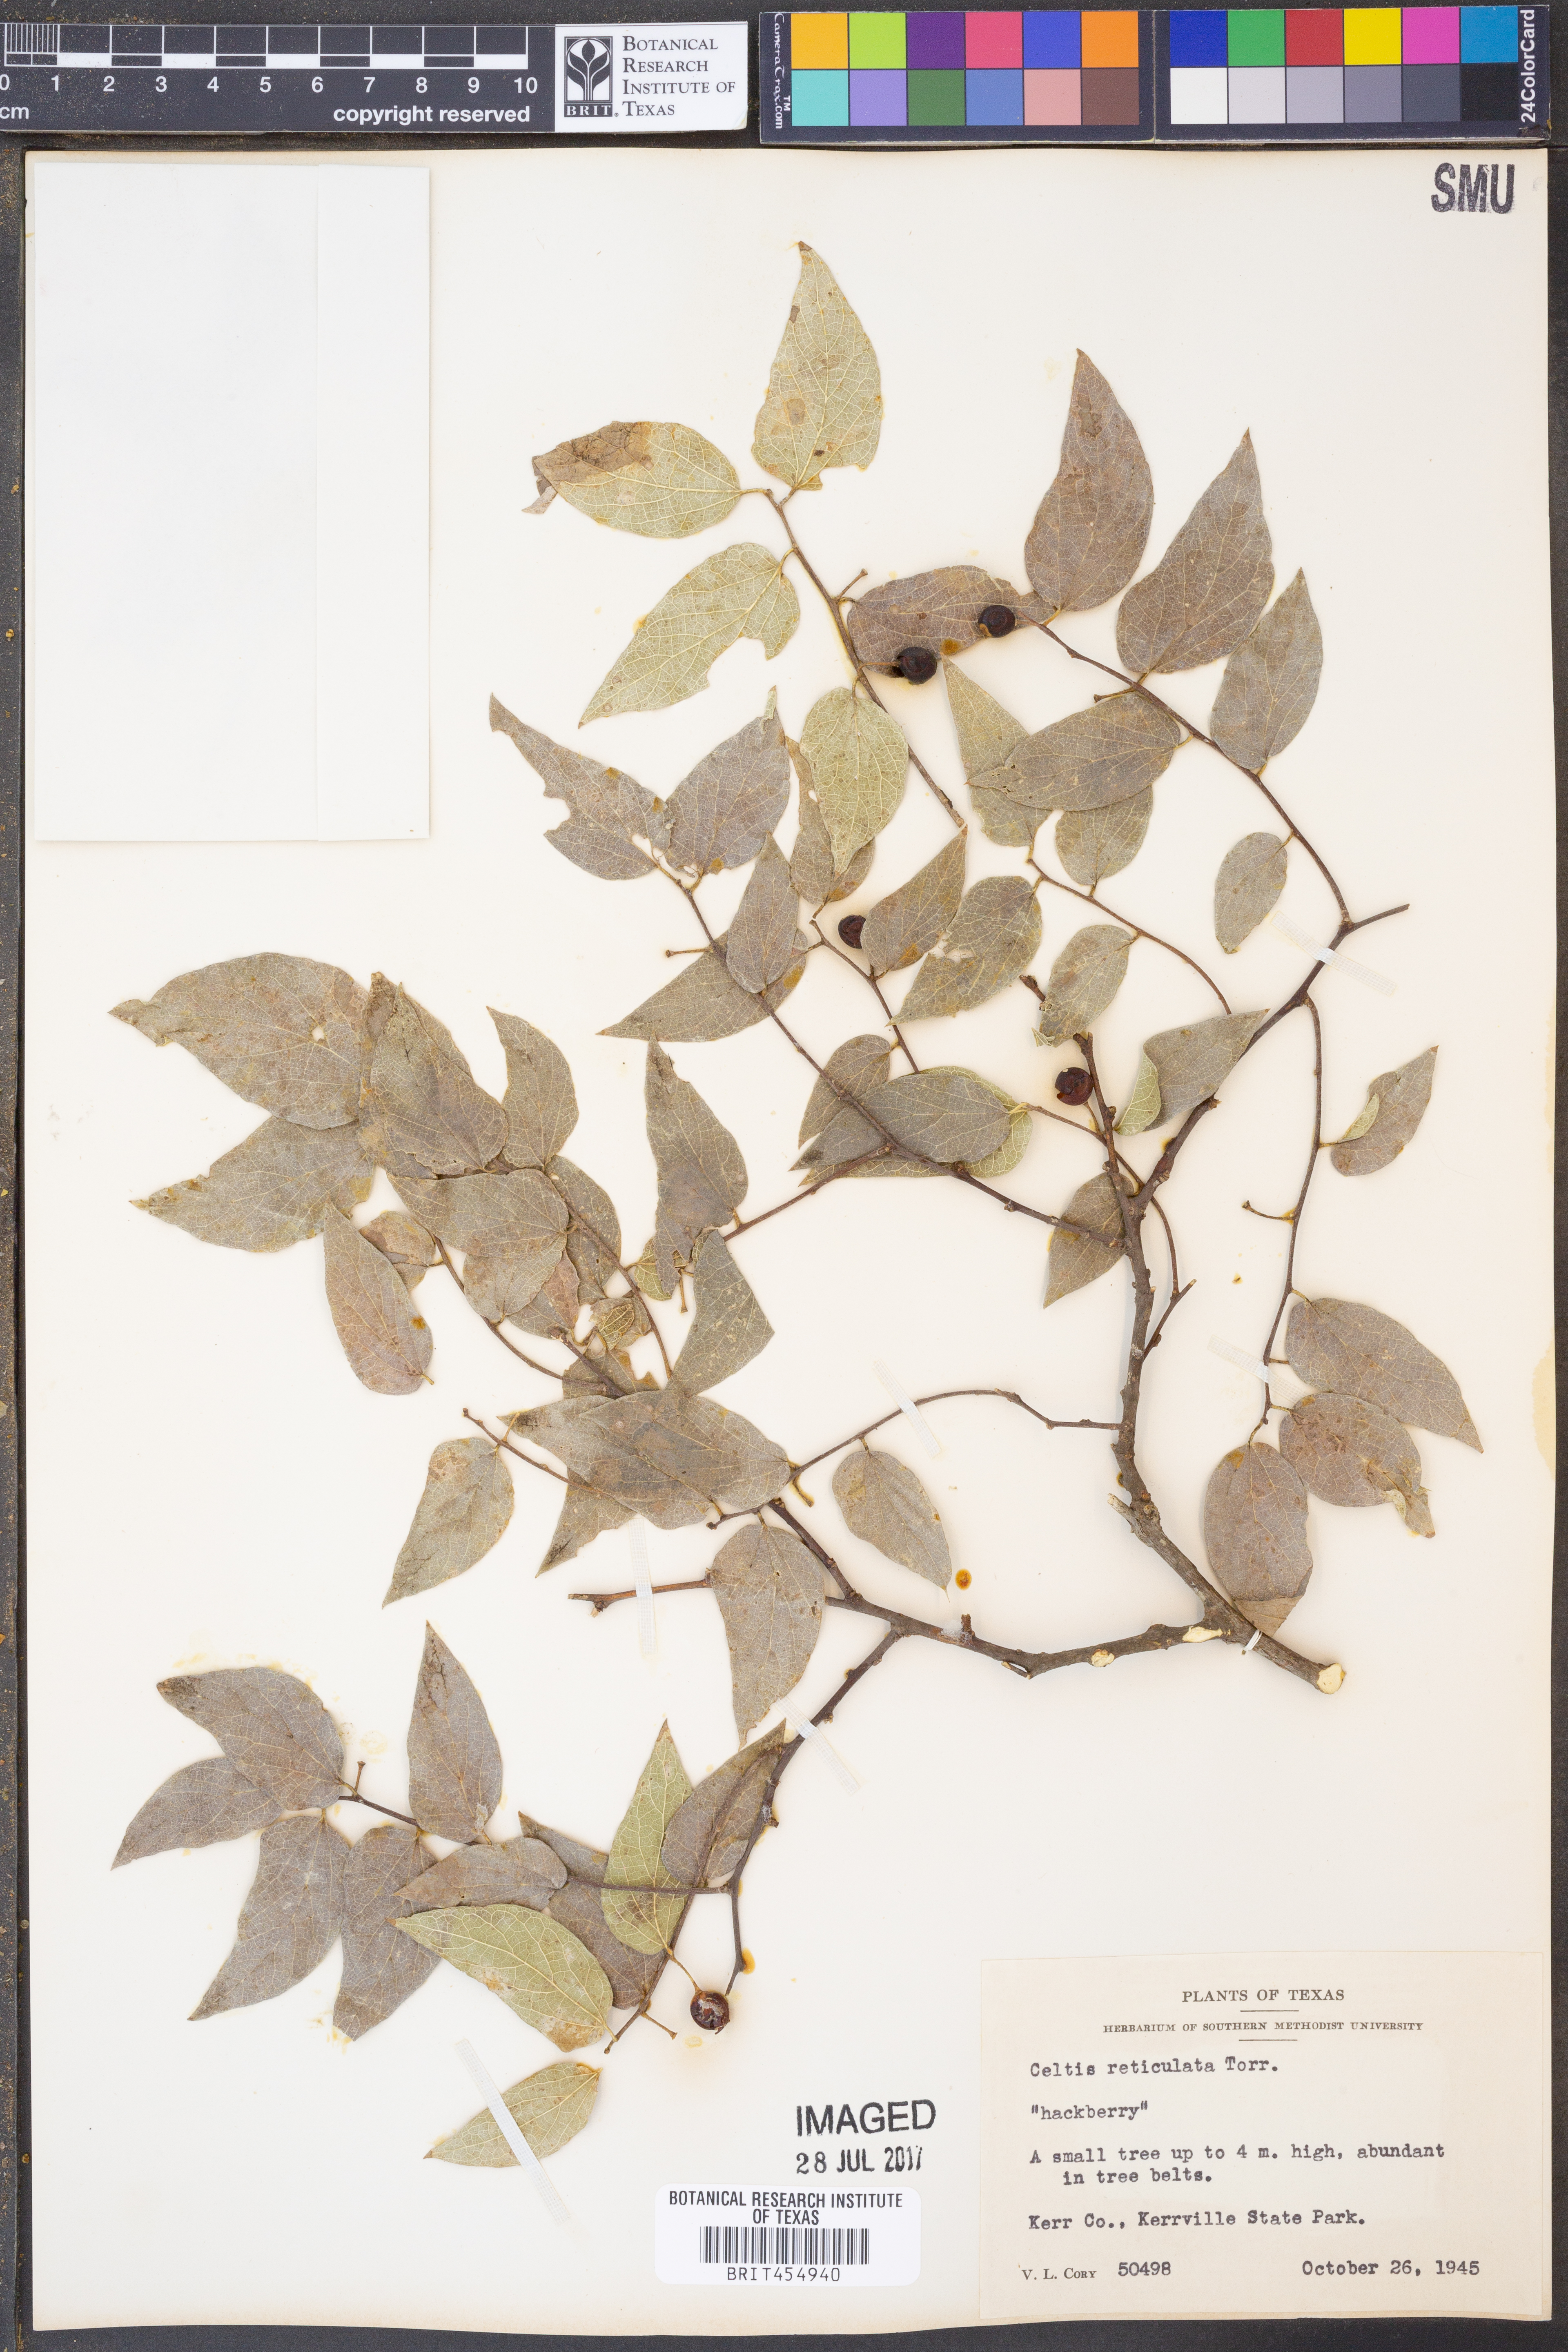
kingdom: Plantae
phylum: Tracheophyta
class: Magnoliopsida
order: Rosales
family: Cannabaceae
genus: Celtis
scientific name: Celtis reticulata
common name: Netleaf hackberry
